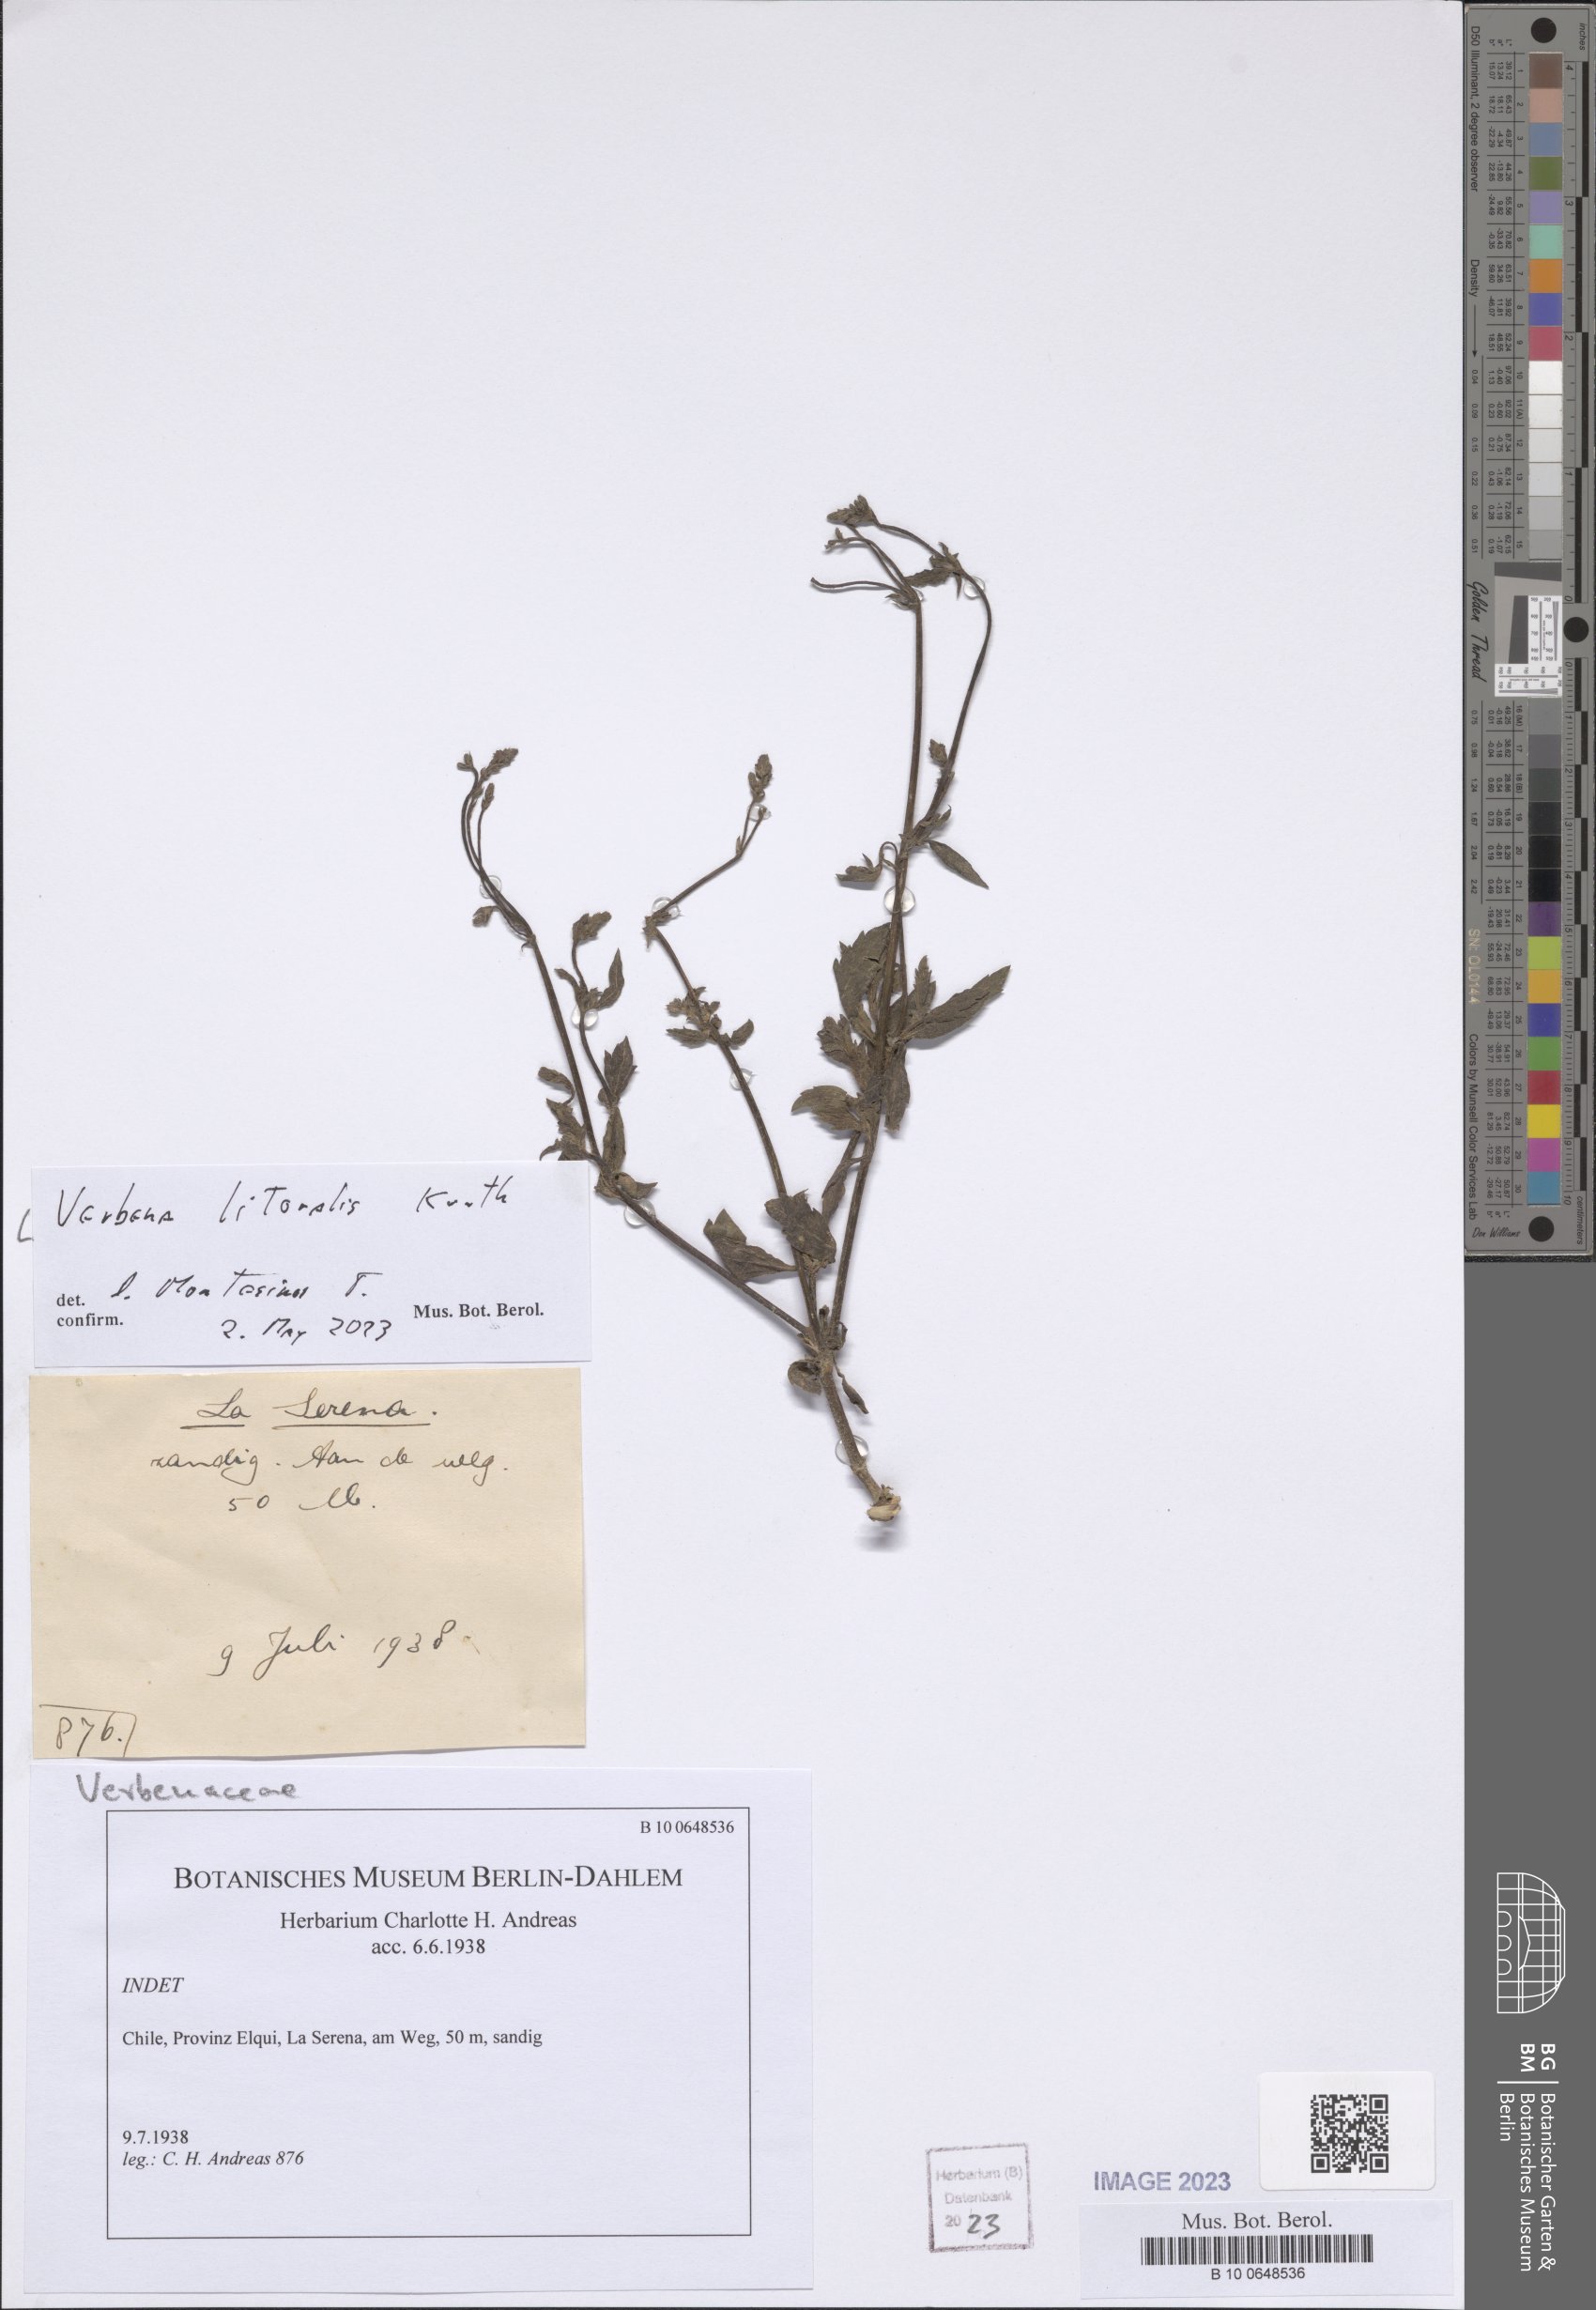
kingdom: Plantae
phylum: Tracheophyta
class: Magnoliopsida
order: Lamiales
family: Verbenaceae
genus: Verbena
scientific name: Verbena litoralis
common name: Seashore vervain
